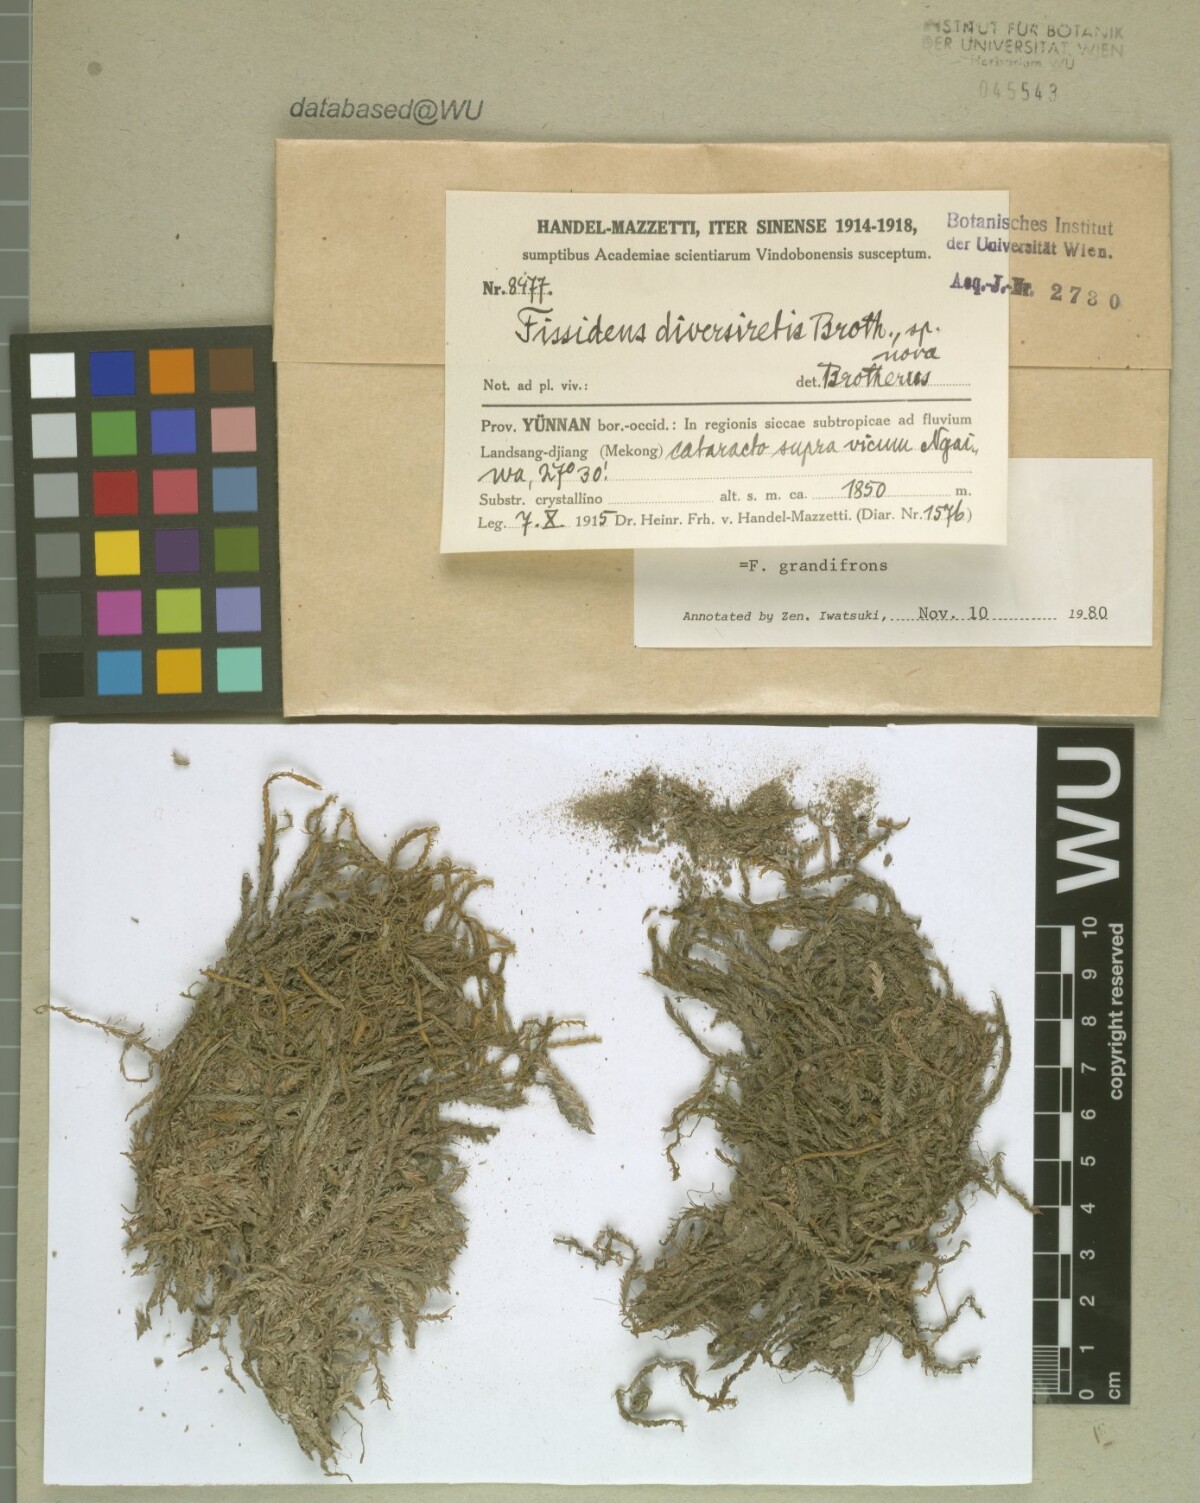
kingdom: Plantae
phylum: Bryophyta
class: Bryopsida
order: Dicranales
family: Fissidentaceae
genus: Fissidens
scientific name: Fissidens grandifrons
